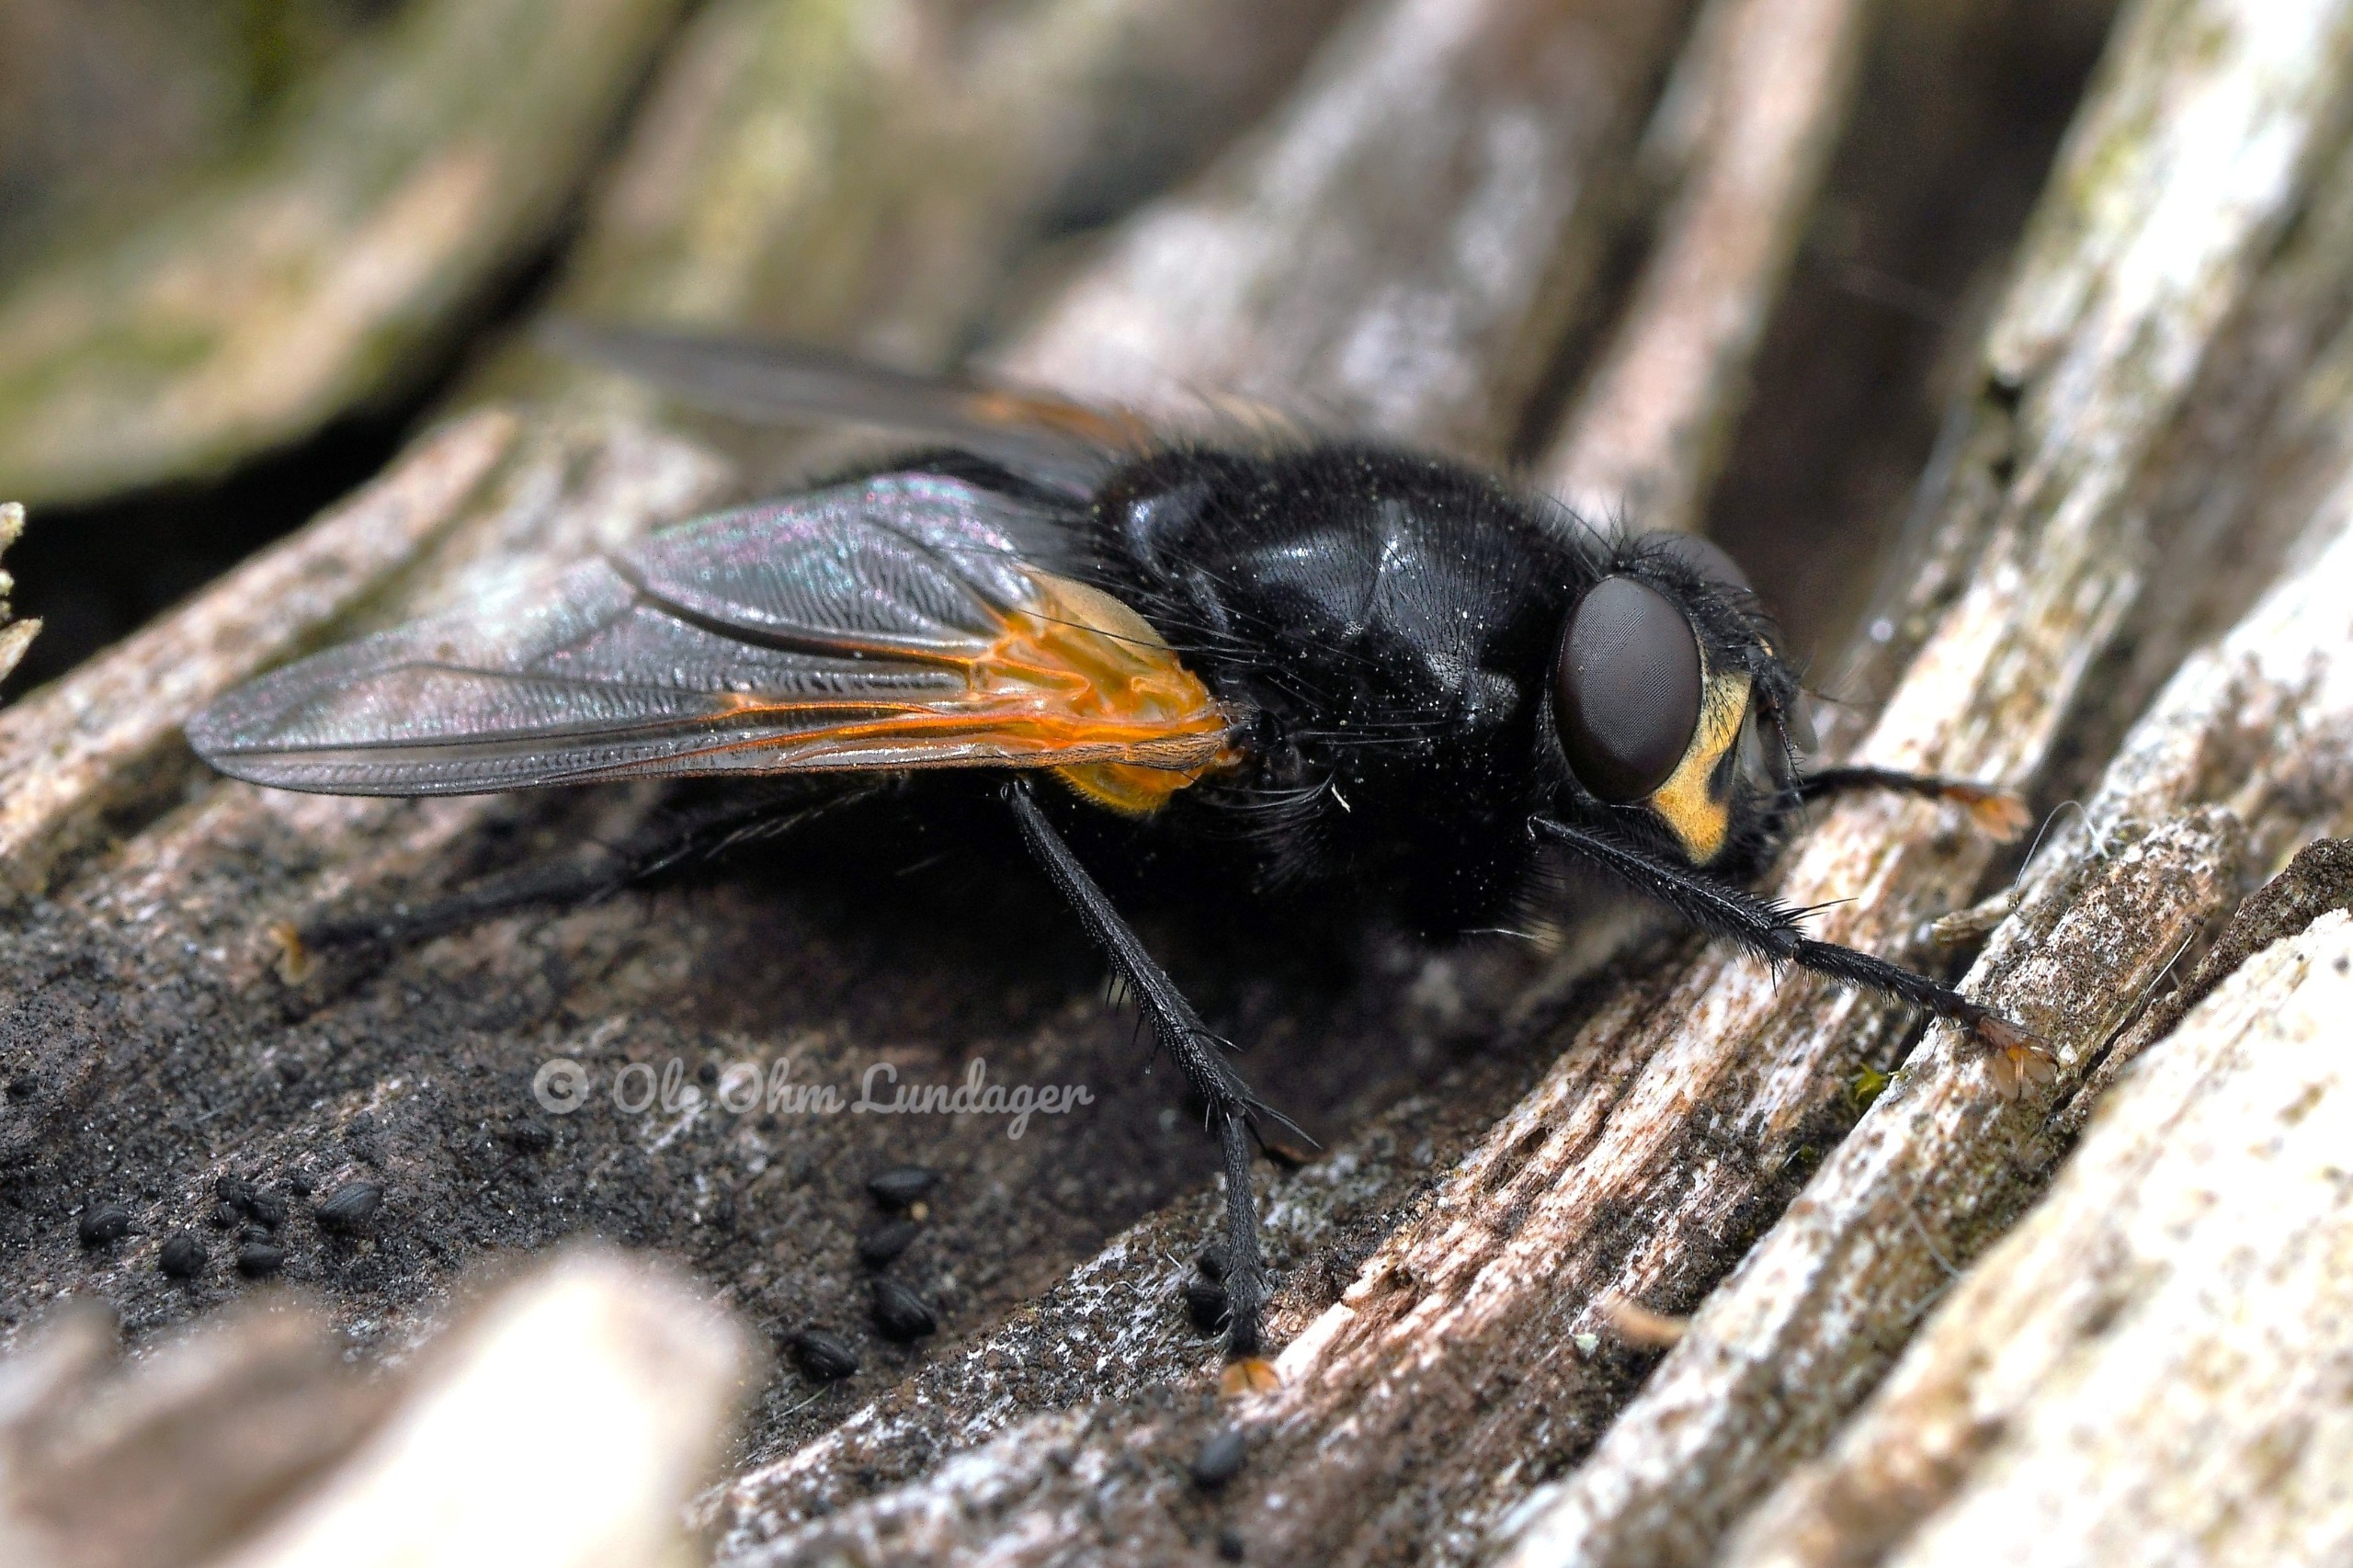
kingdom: Animalia
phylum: Arthropoda
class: Insecta
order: Diptera
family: Muscidae
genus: Mesembrina
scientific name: Mesembrina meridiana
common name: Gulvinget flue
